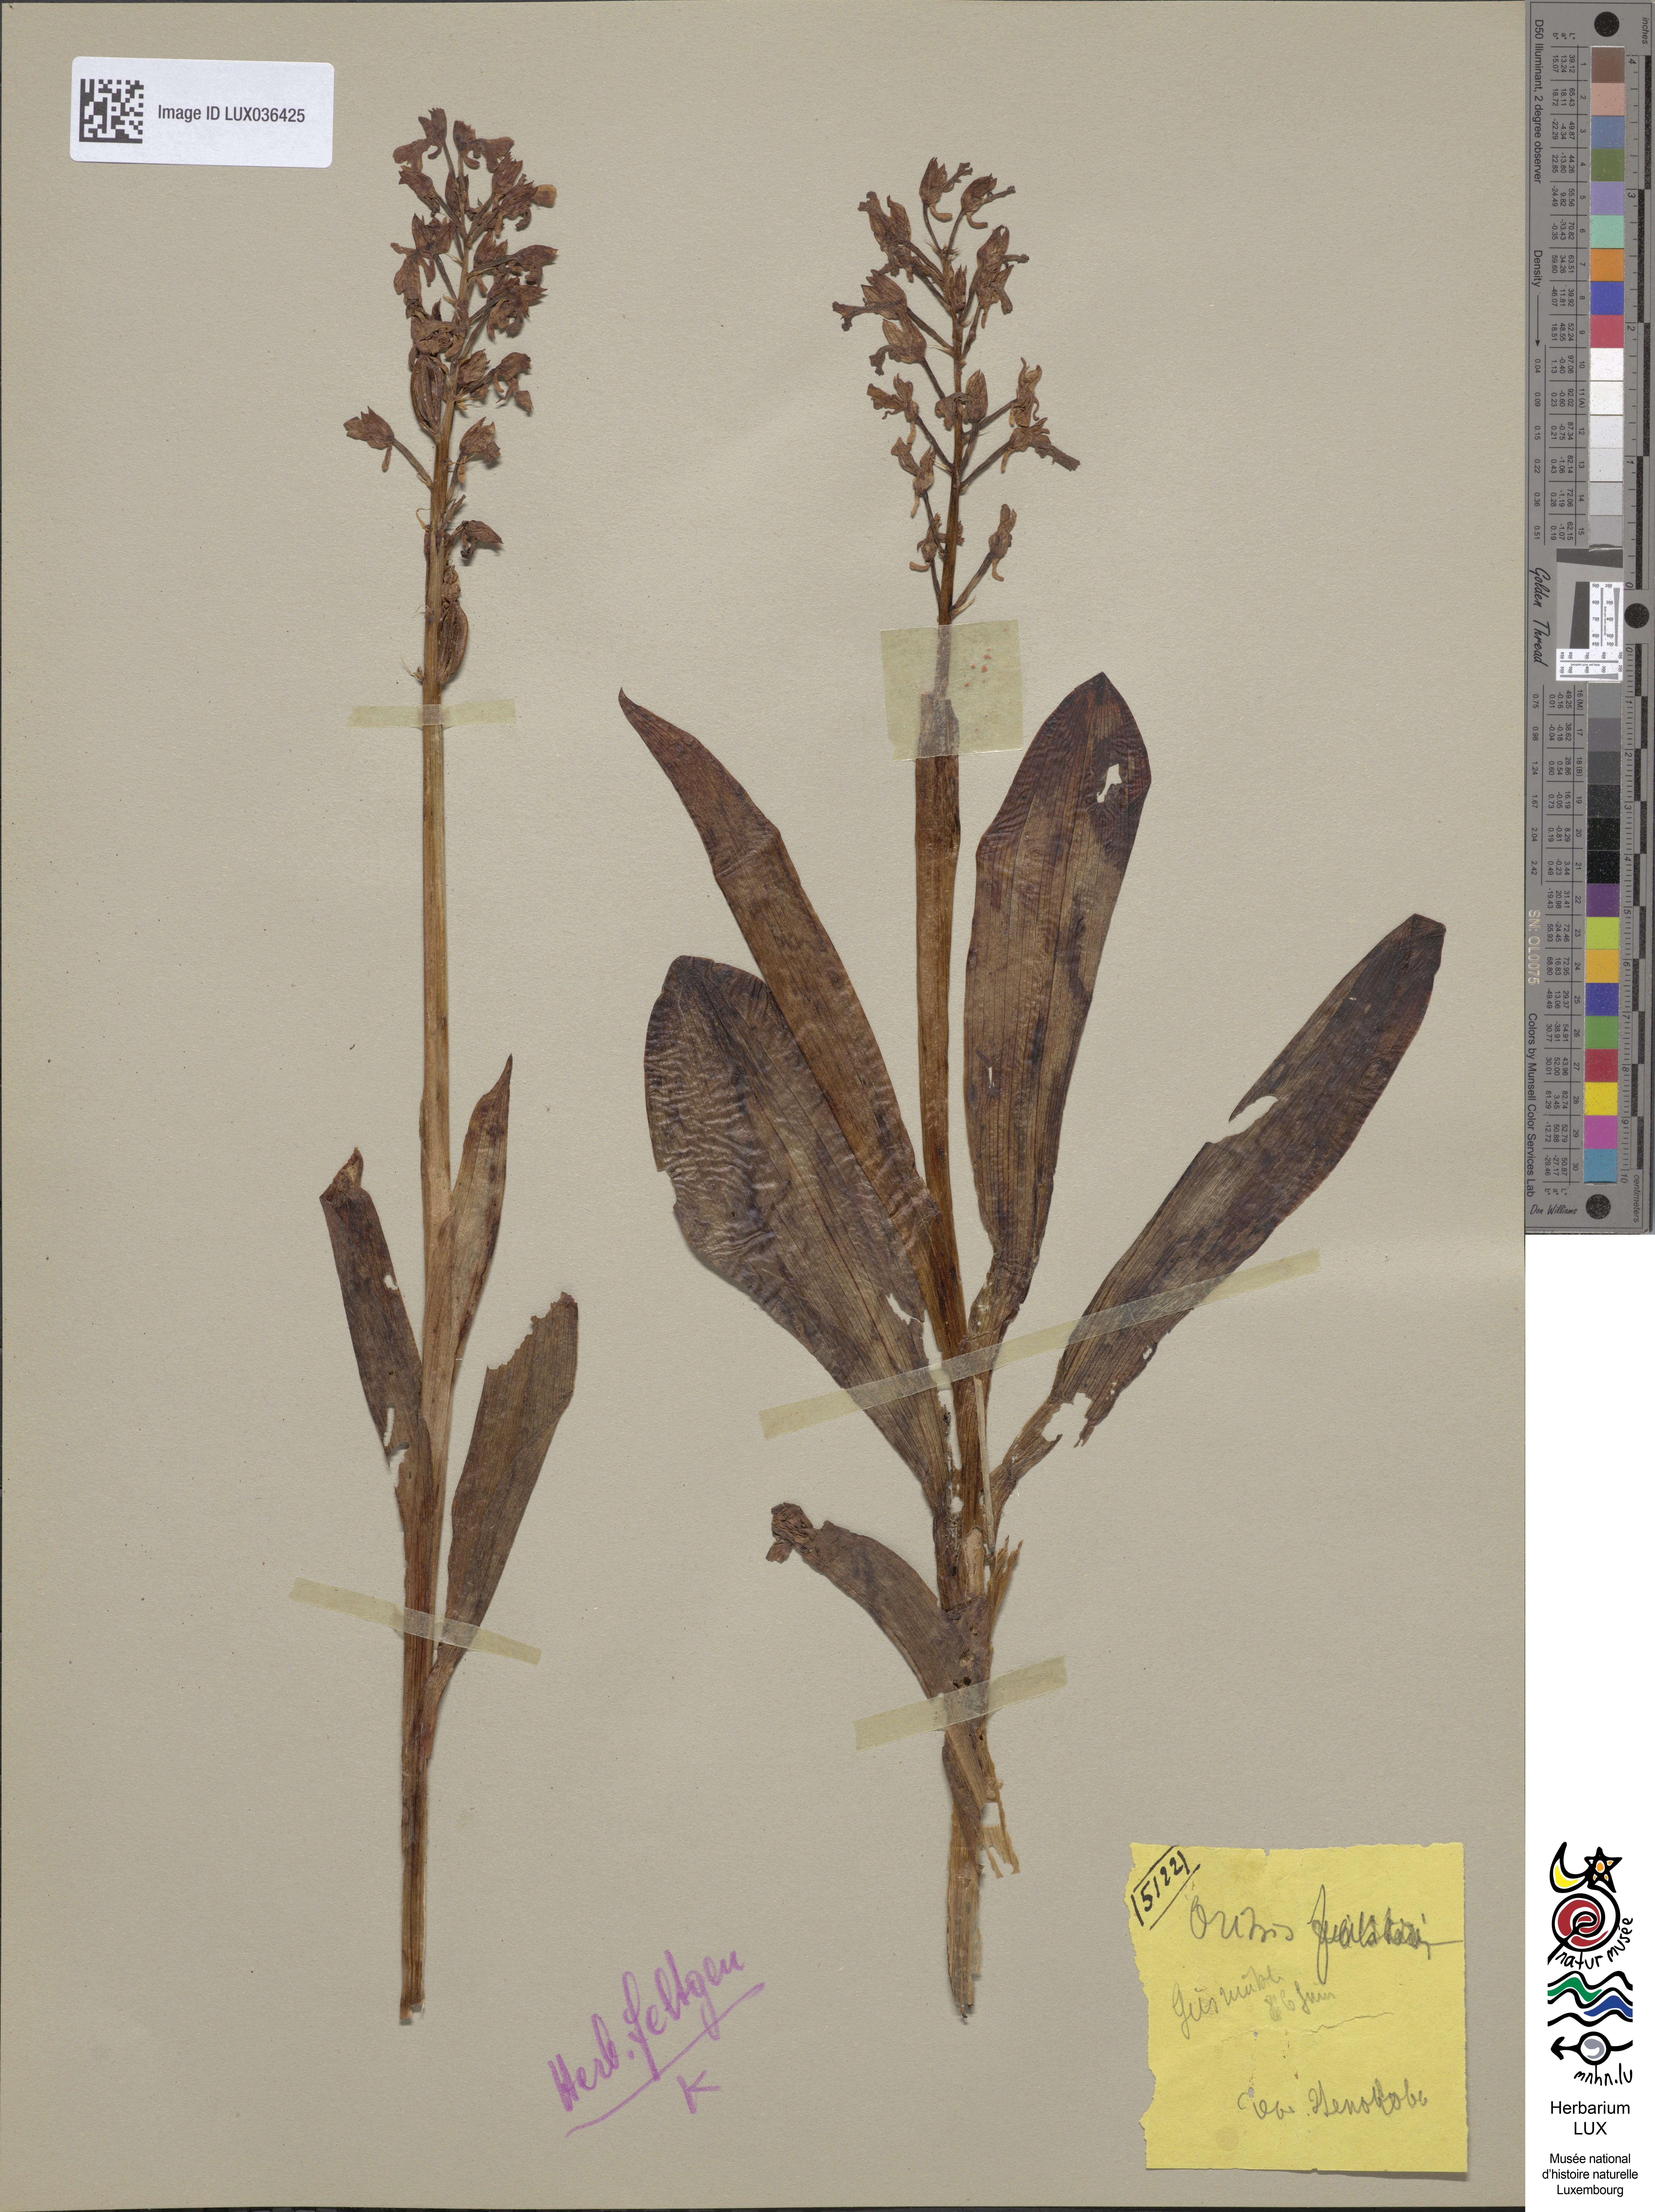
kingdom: Plantae
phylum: Tracheophyta
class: Liliopsida
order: Asparagales
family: Orchidaceae
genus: Orchis
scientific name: Orchis italica
